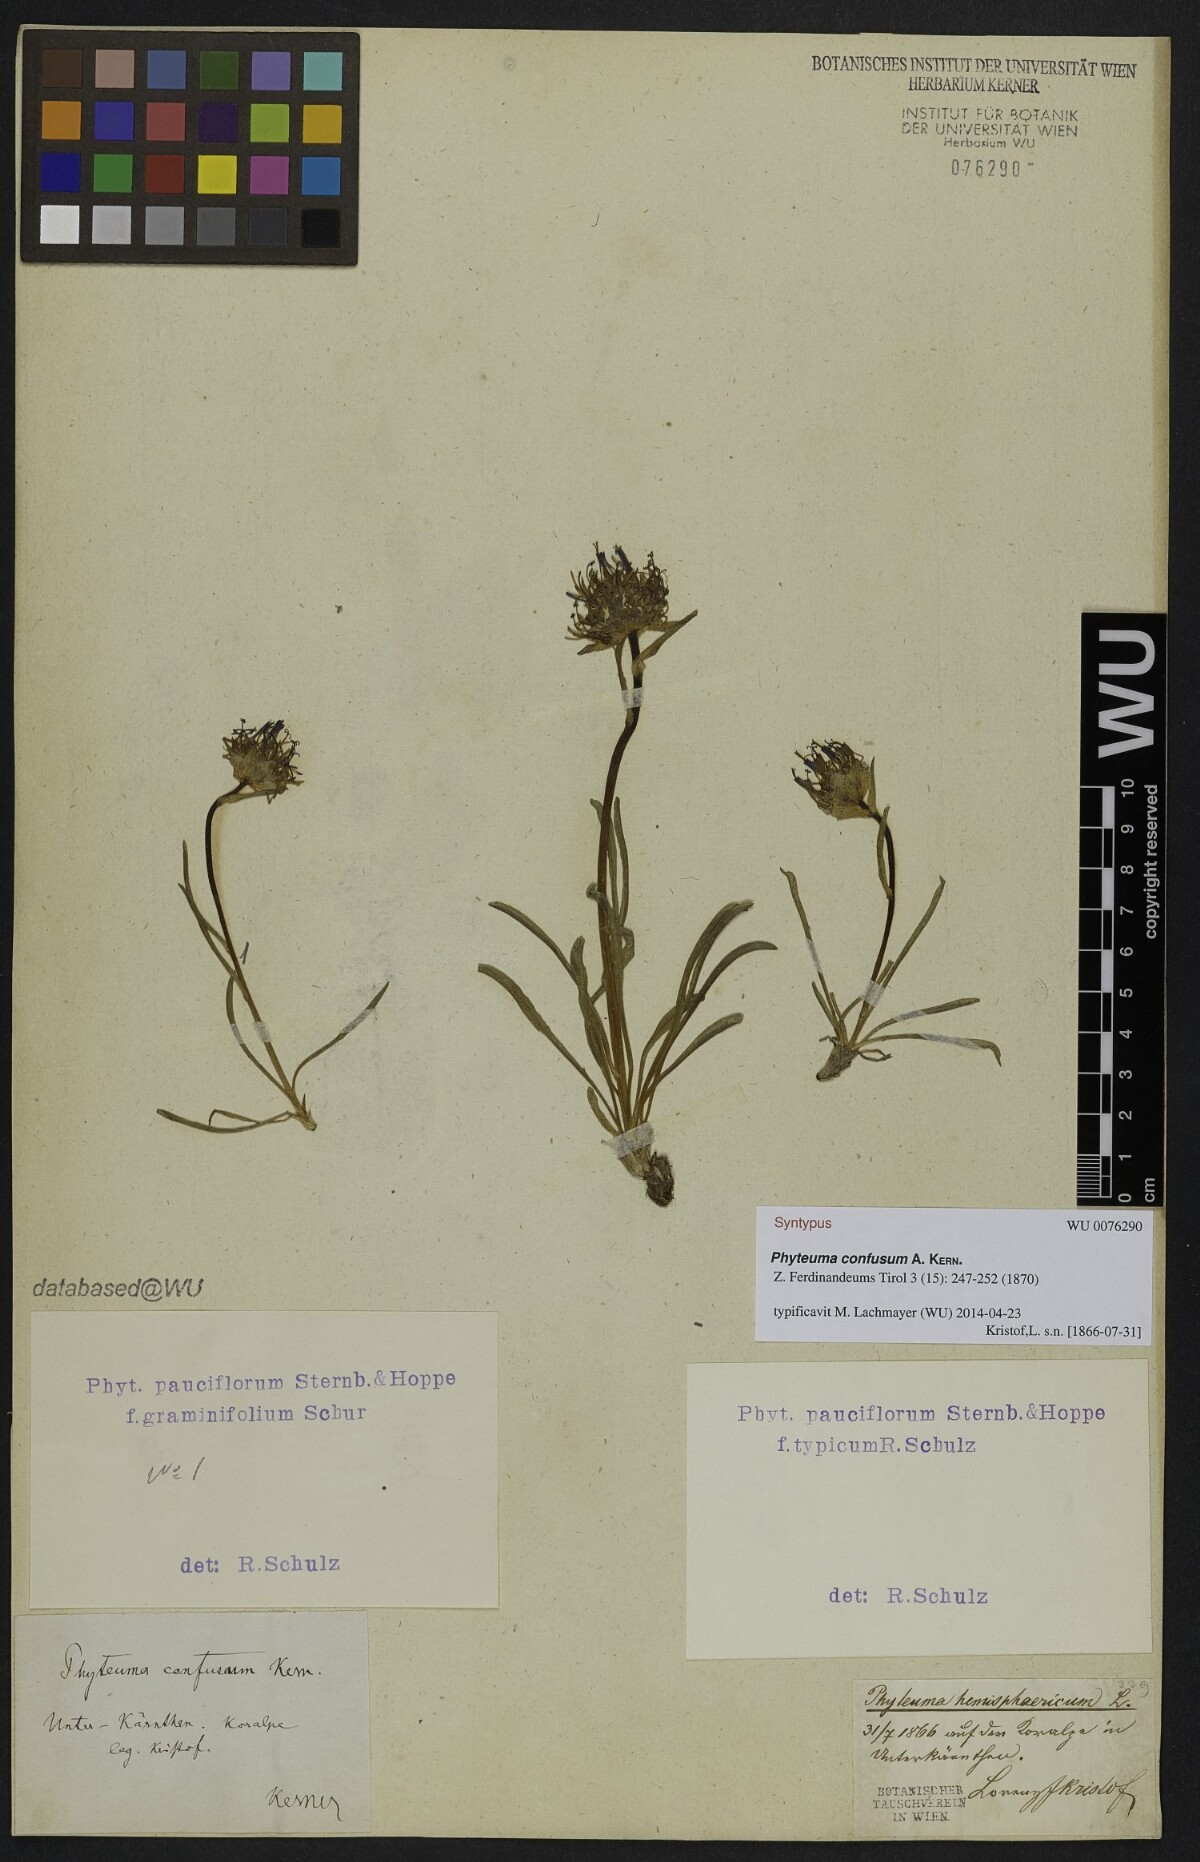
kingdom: Plantae
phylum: Tracheophyta
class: Magnoliopsida
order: Asterales
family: Campanulaceae
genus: Phyteuma
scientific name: Phyteuma confusum
